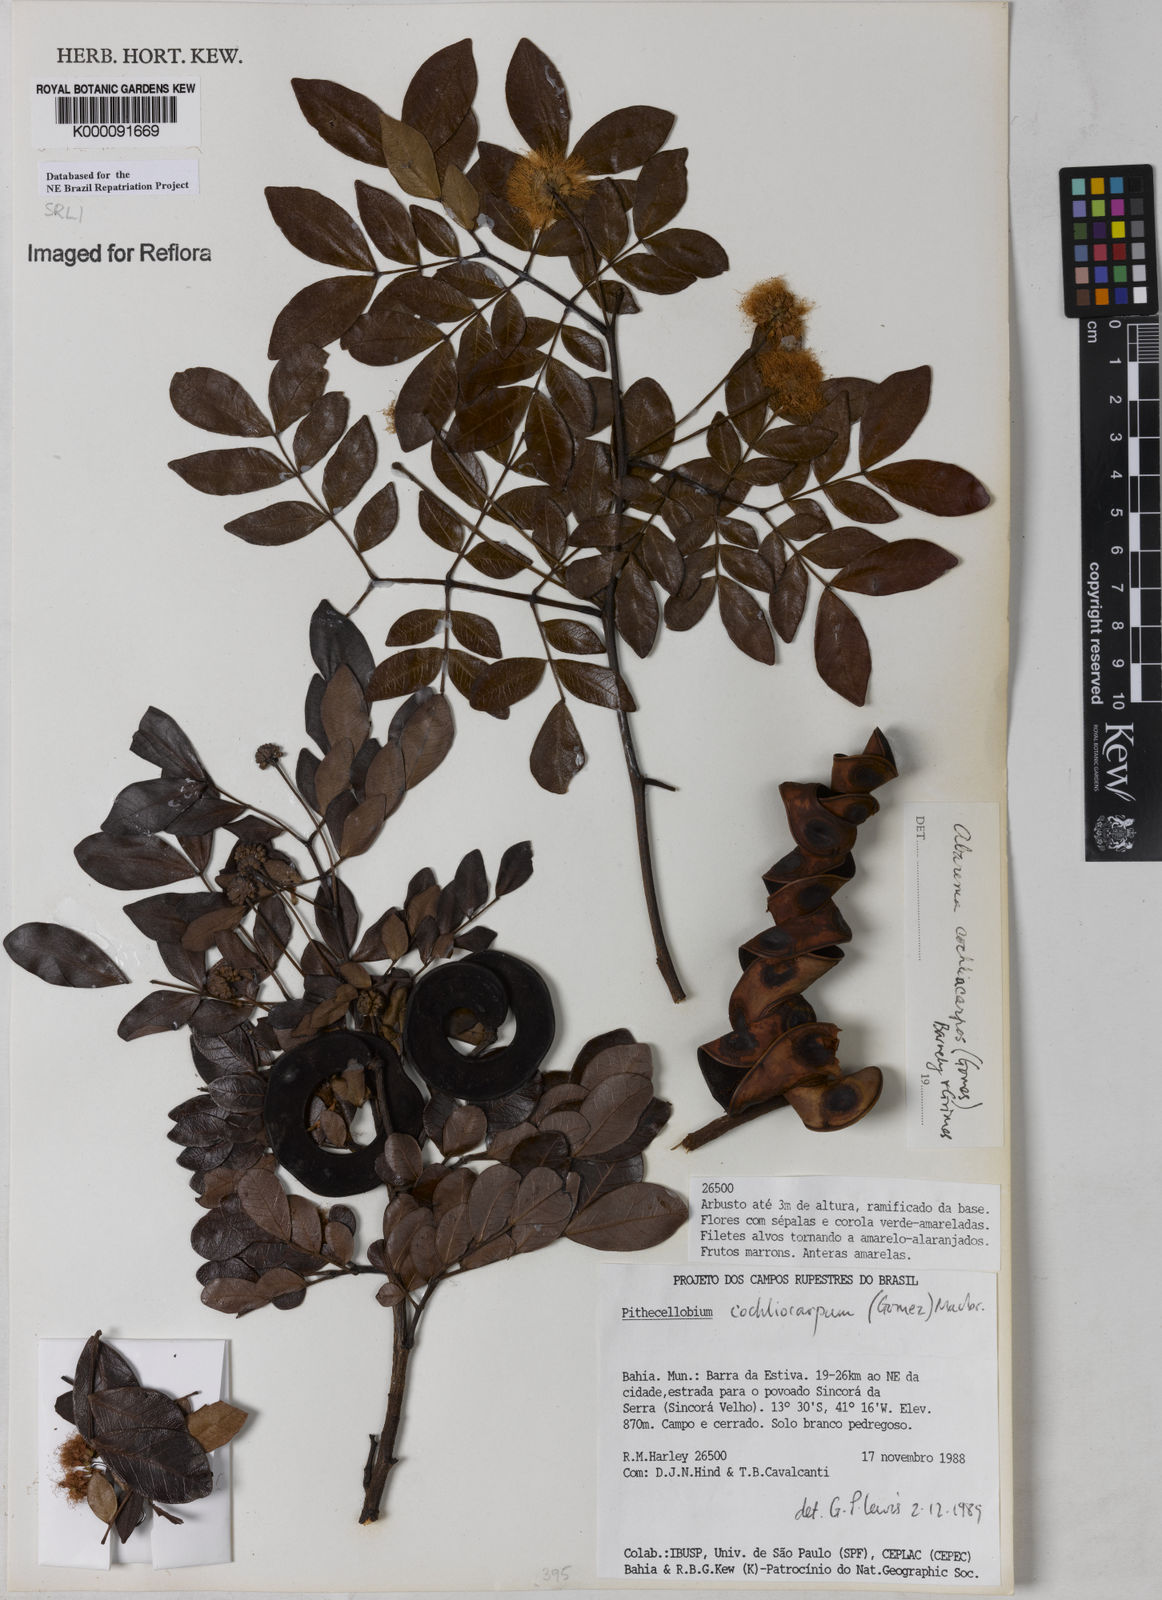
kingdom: Plantae
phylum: Tracheophyta
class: Magnoliopsida
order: Fabales
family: Fabaceae
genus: Abarema
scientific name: Abarema
